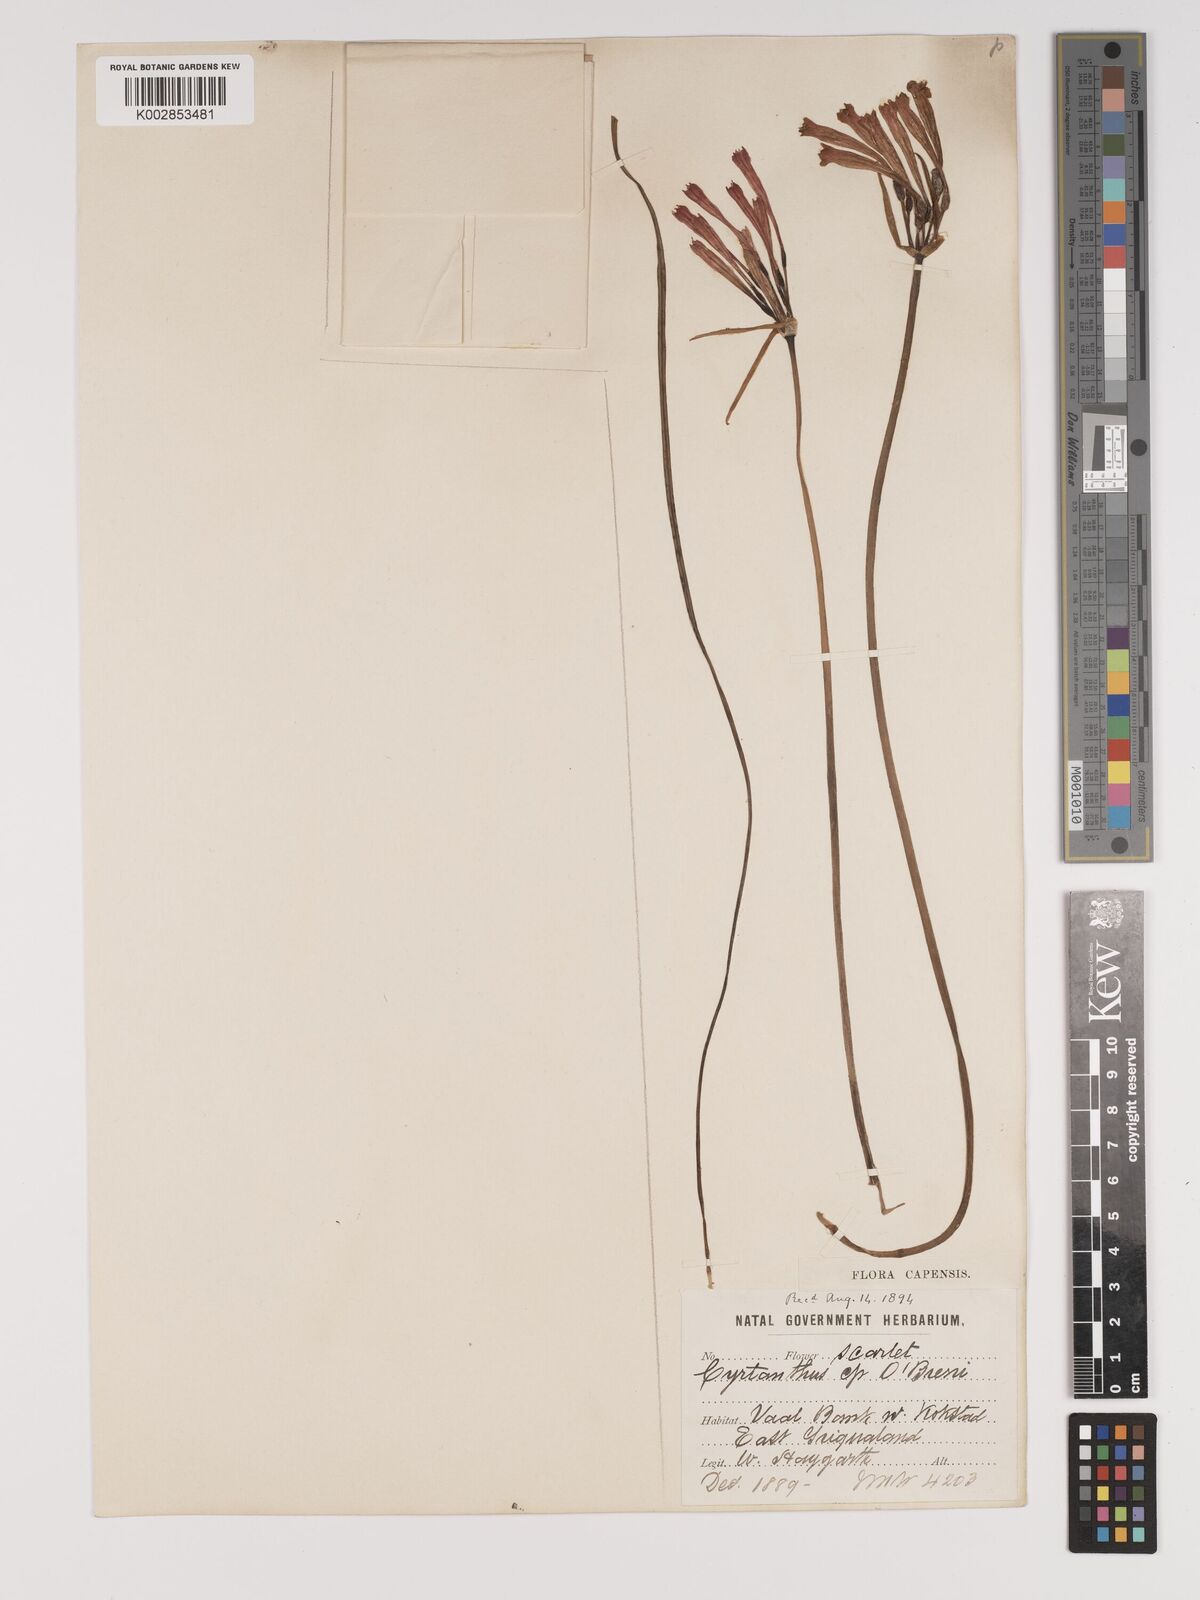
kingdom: Plantae
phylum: Tracheophyta
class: Liliopsida
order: Asparagales
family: Amaryllidaceae
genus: Cyrtanthus
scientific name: Cyrtanthus obrienii
